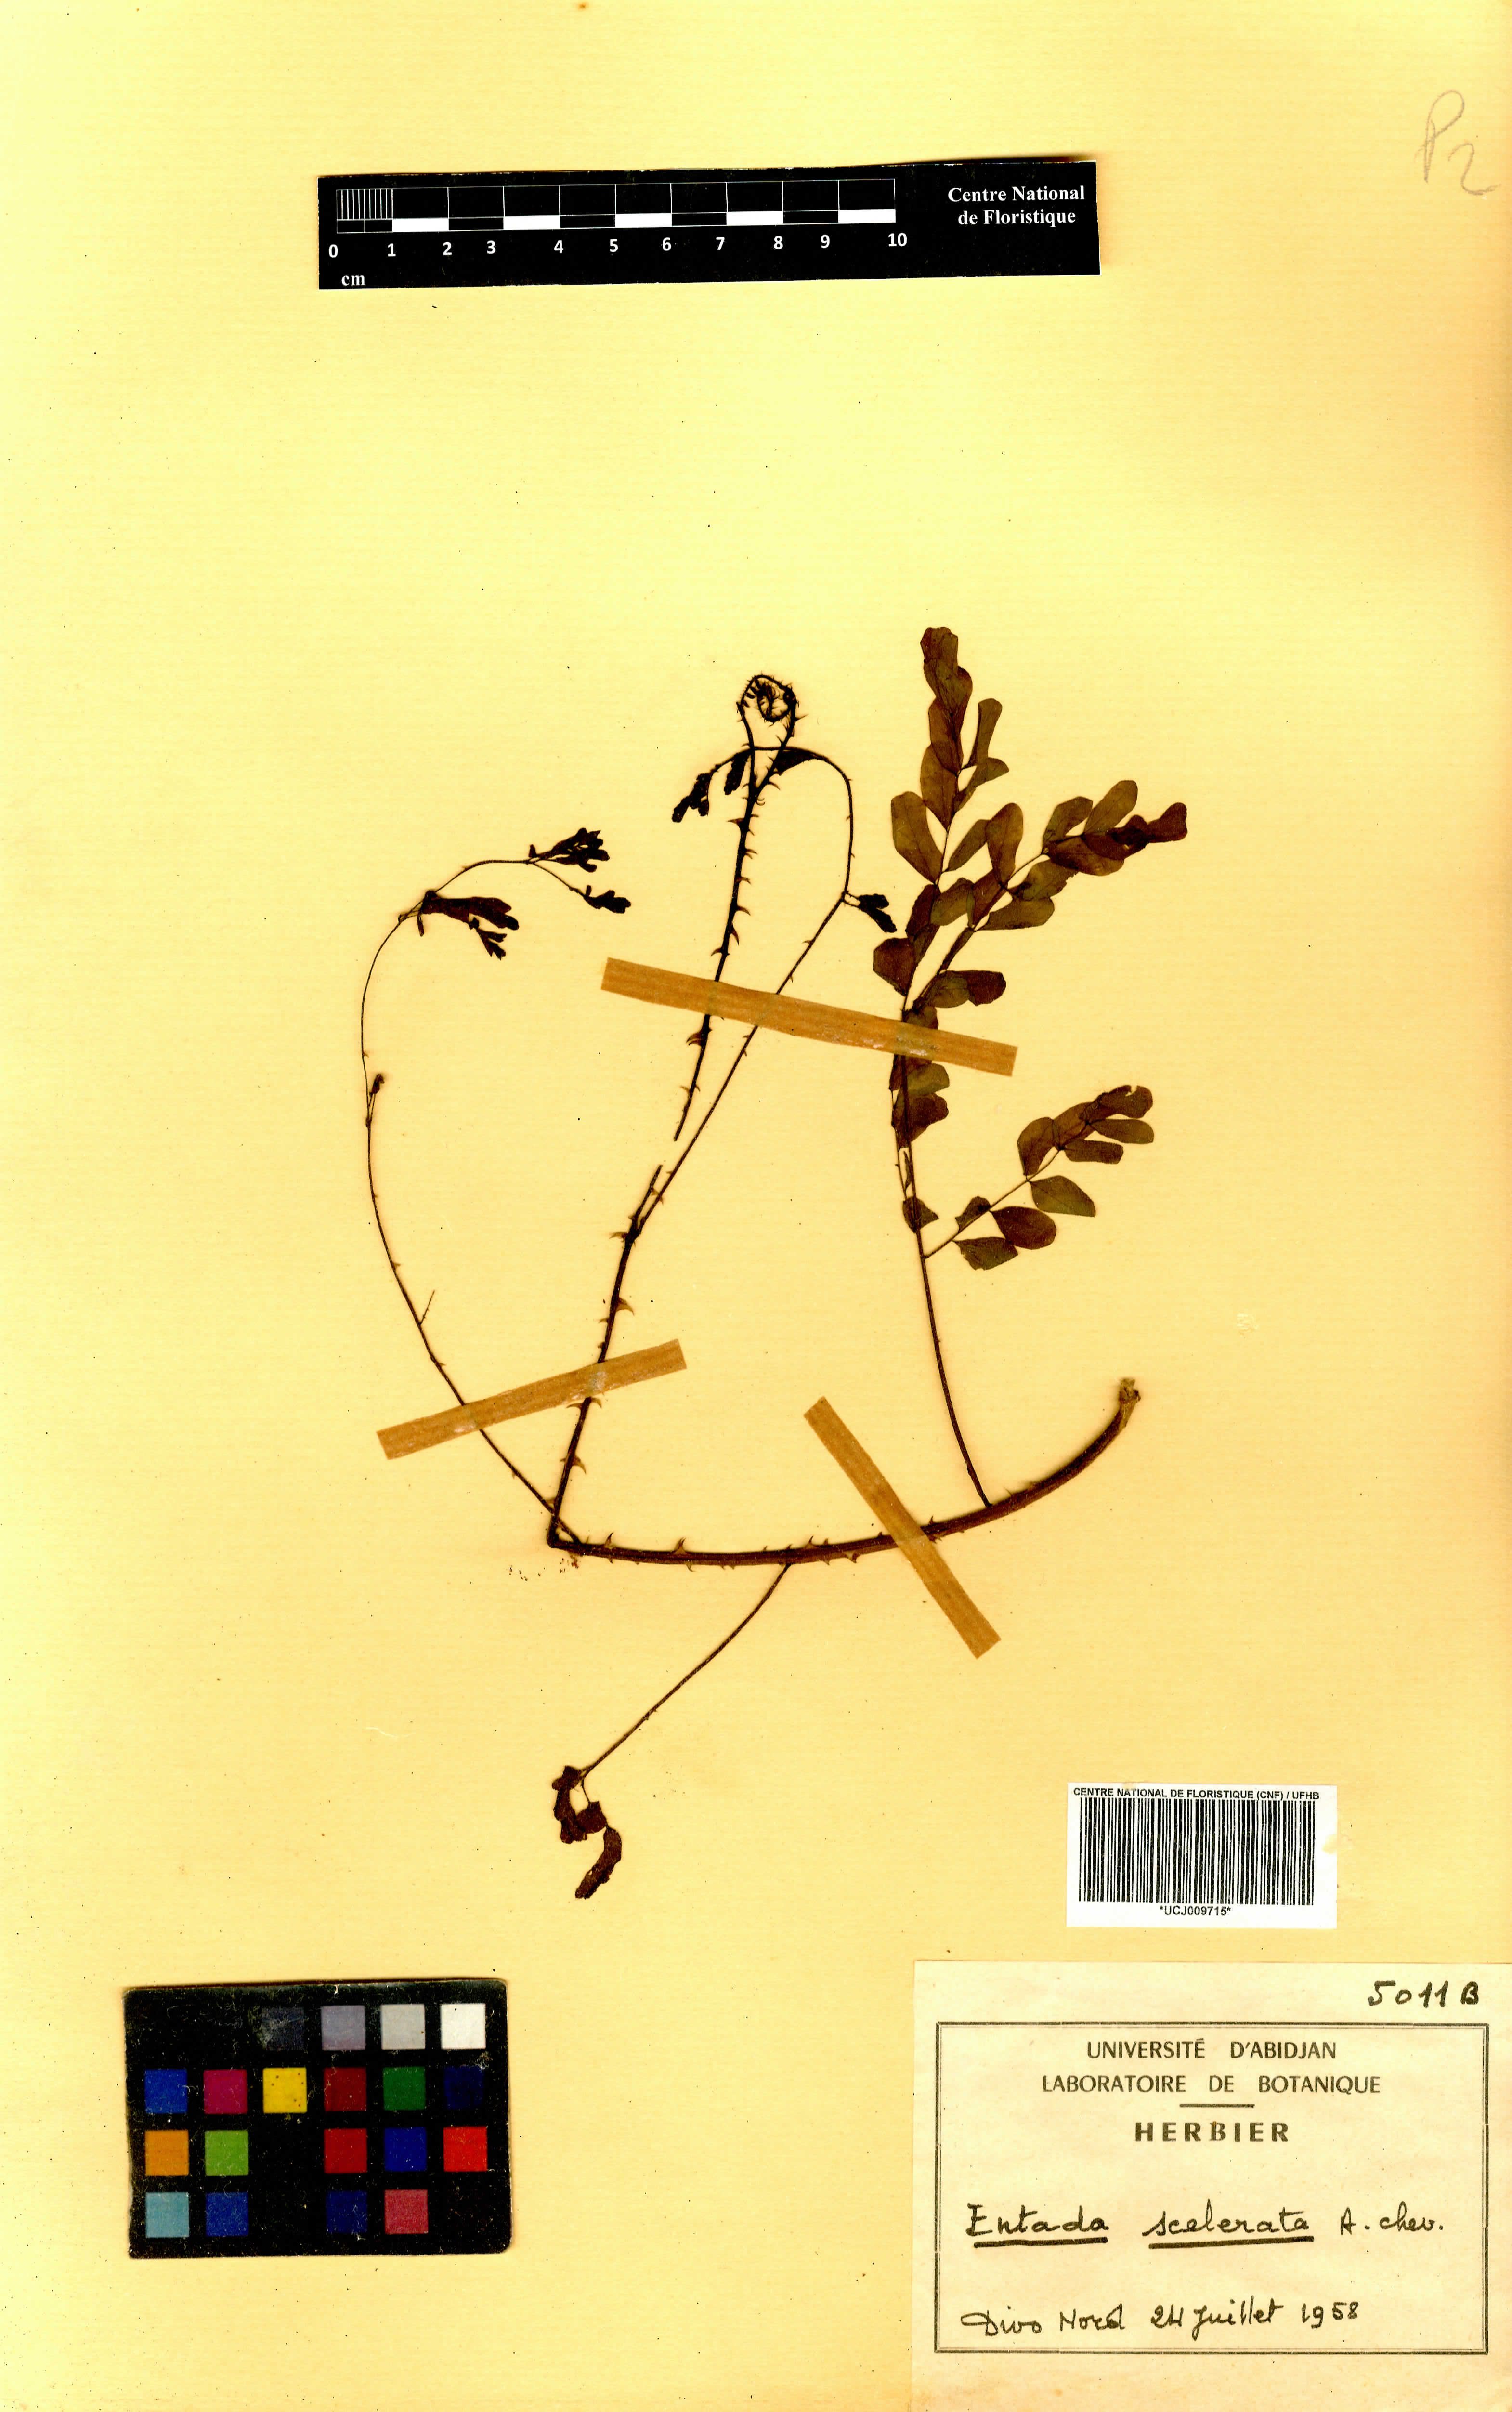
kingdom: Plantae
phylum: Tracheophyta
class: Magnoliopsida
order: Fabales
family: Fabaceae
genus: Adenopodia
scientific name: Adenopodia scelerata
